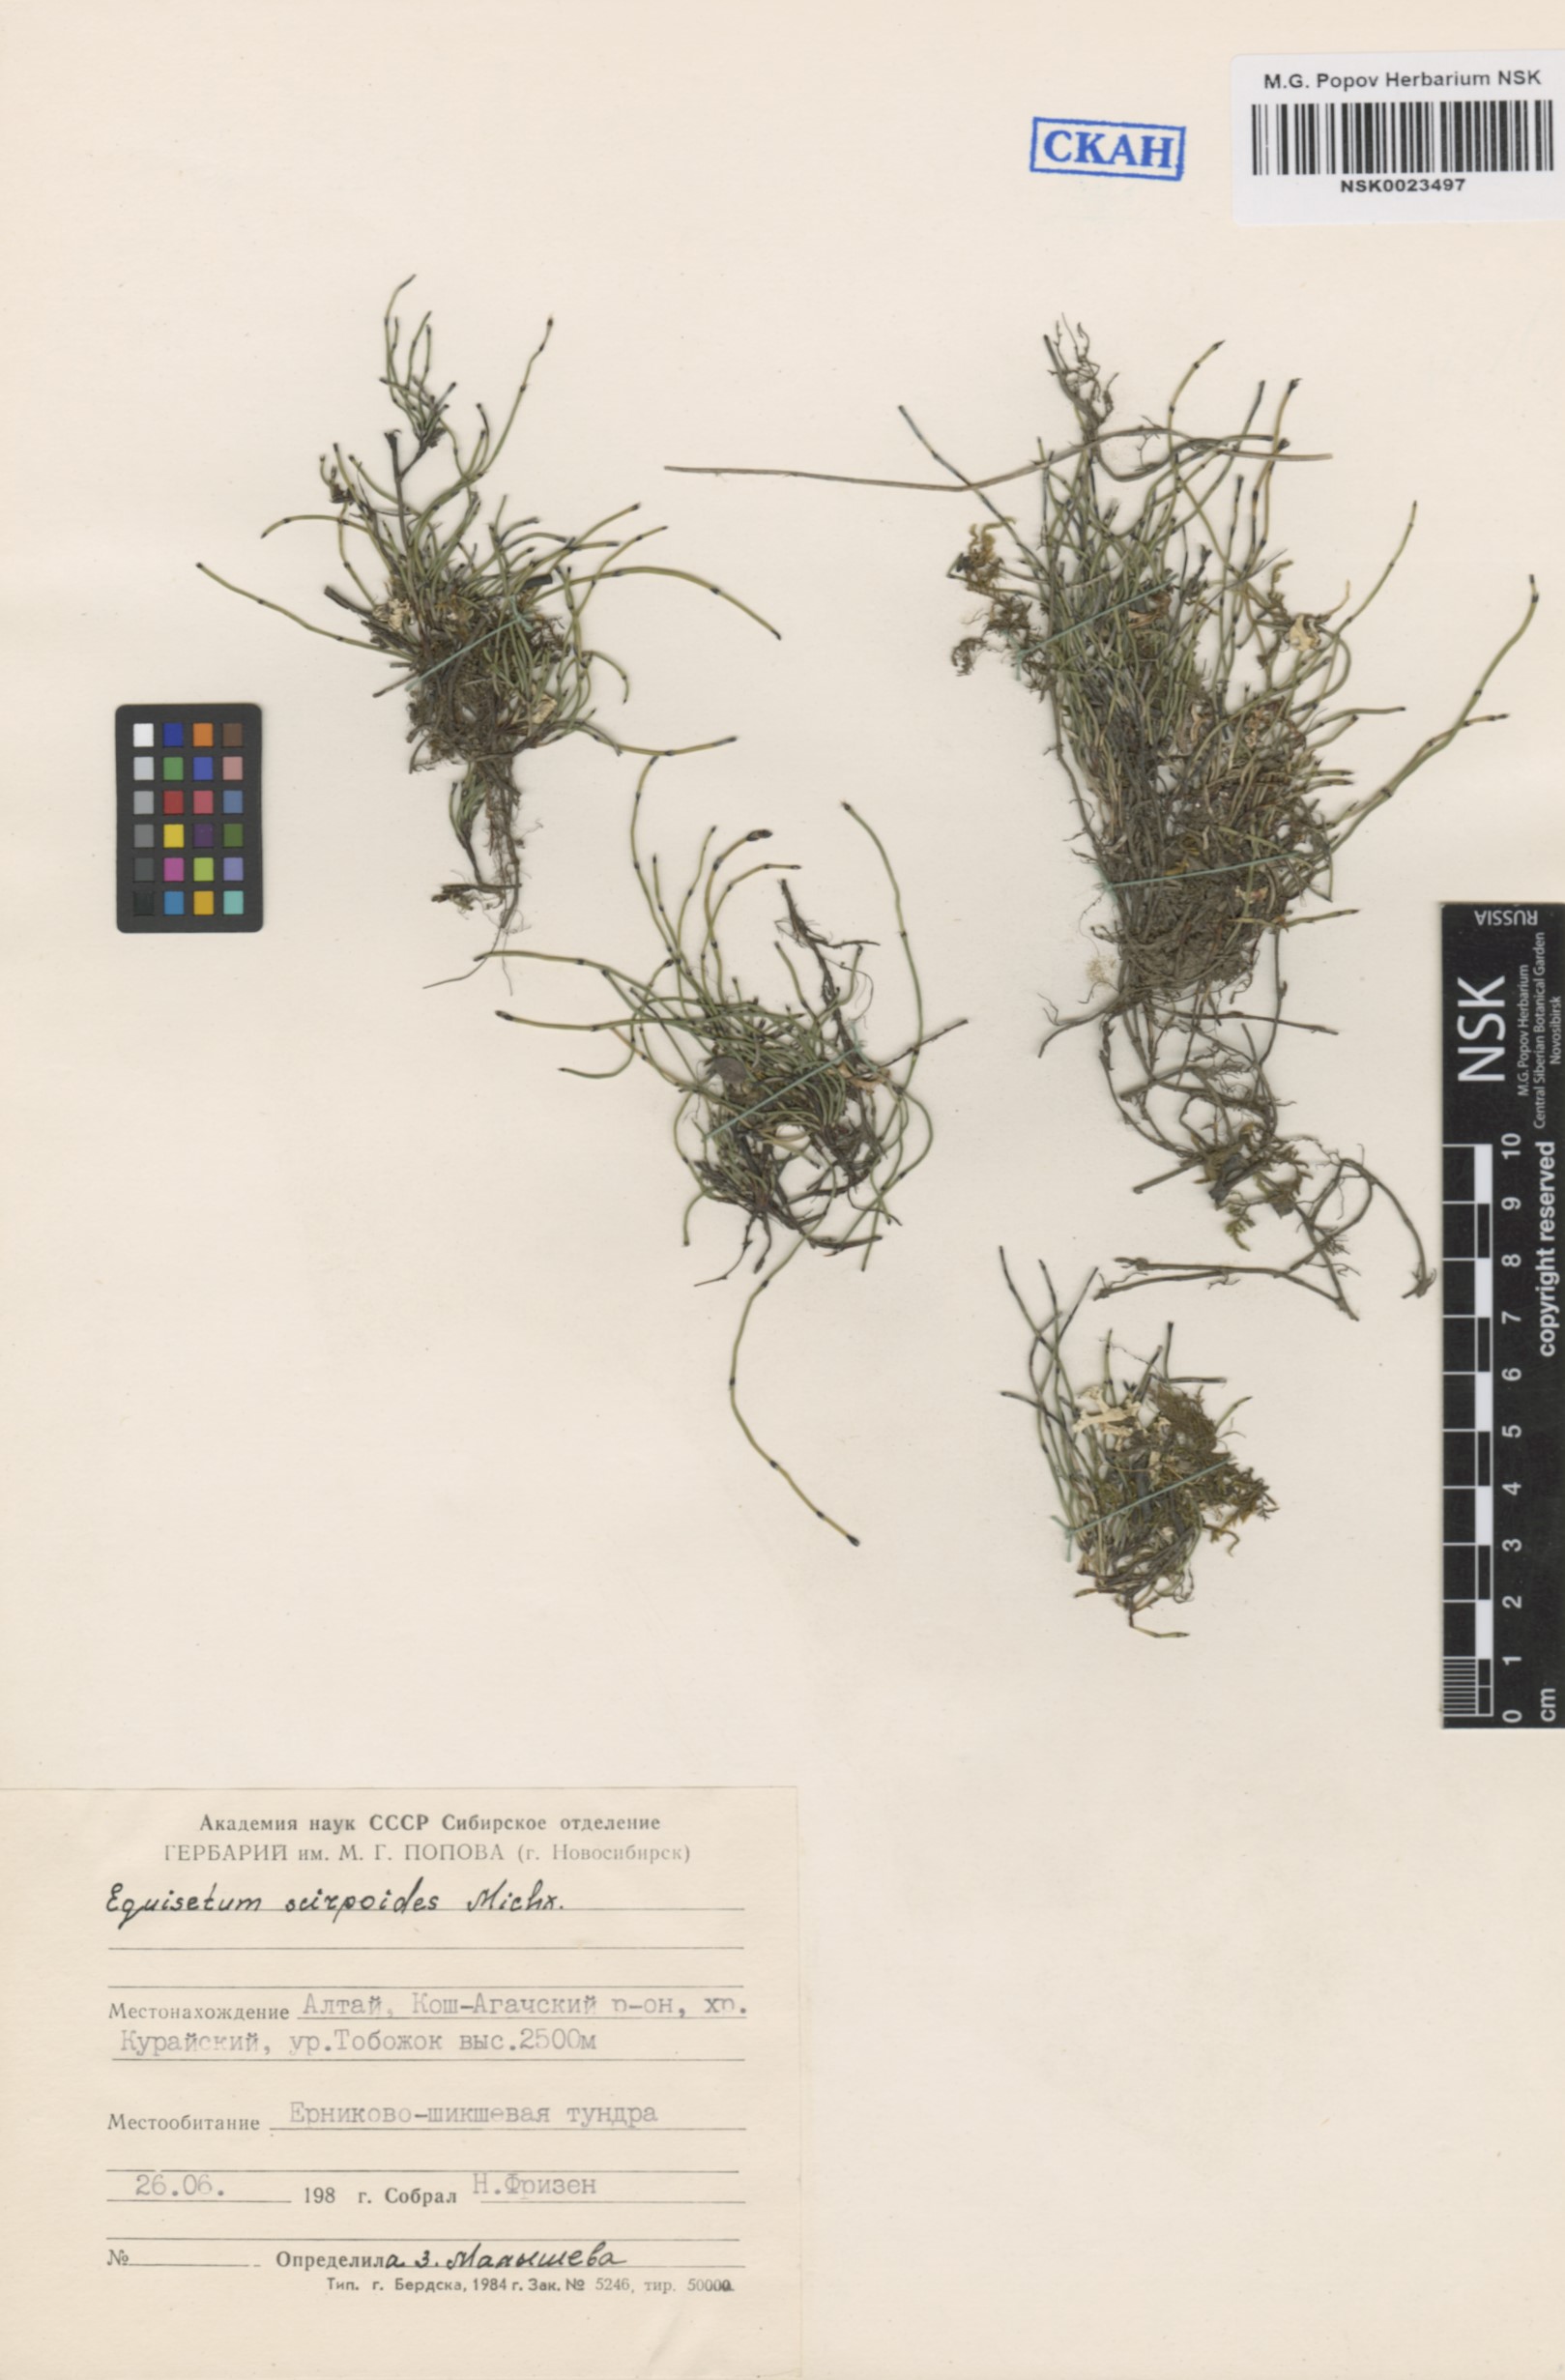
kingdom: Plantae
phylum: Tracheophyta
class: Polypodiopsida
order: Equisetales
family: Equisetaceae
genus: Equisetum
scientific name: Equisetum scirpoides
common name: Delicate horsetail
